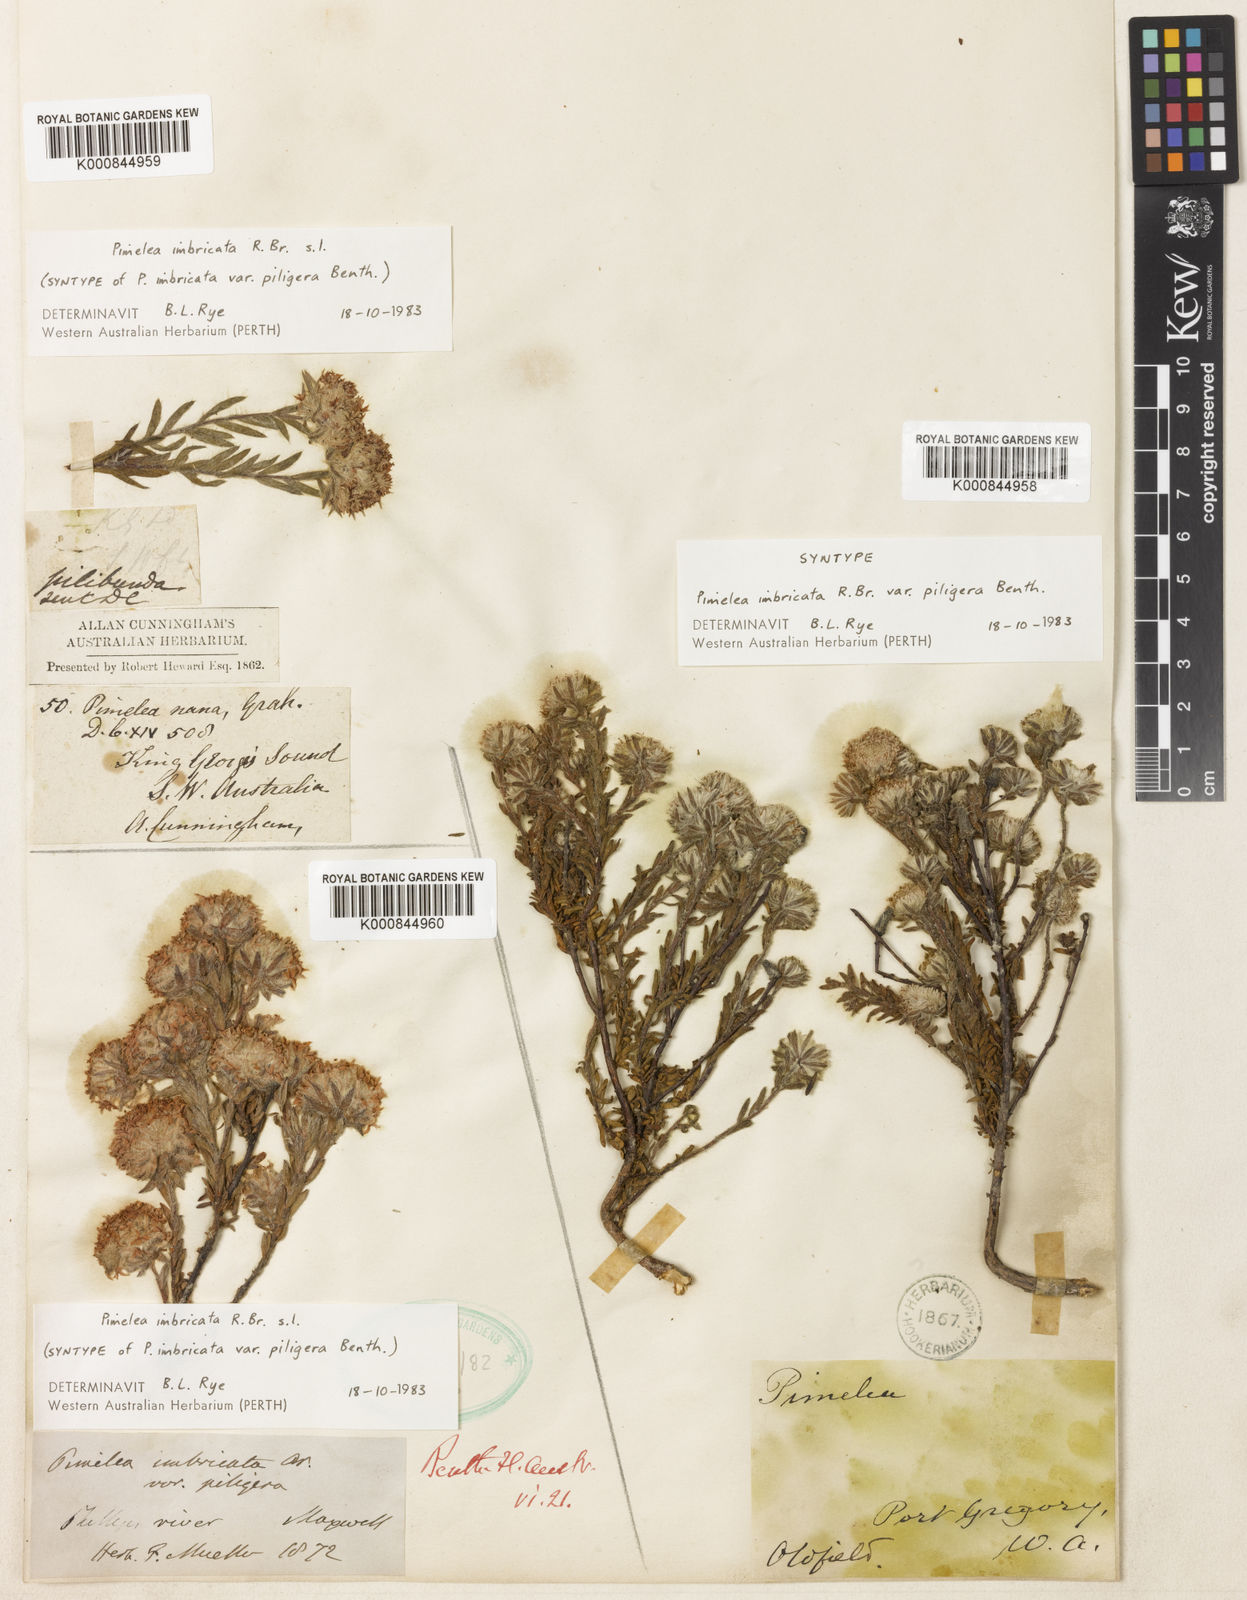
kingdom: Plantae
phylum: Tracheophyta
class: Magnoliopsida
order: Malvales
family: Thymelaeaceae
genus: Pimelea
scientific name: Pimelea imbricata
